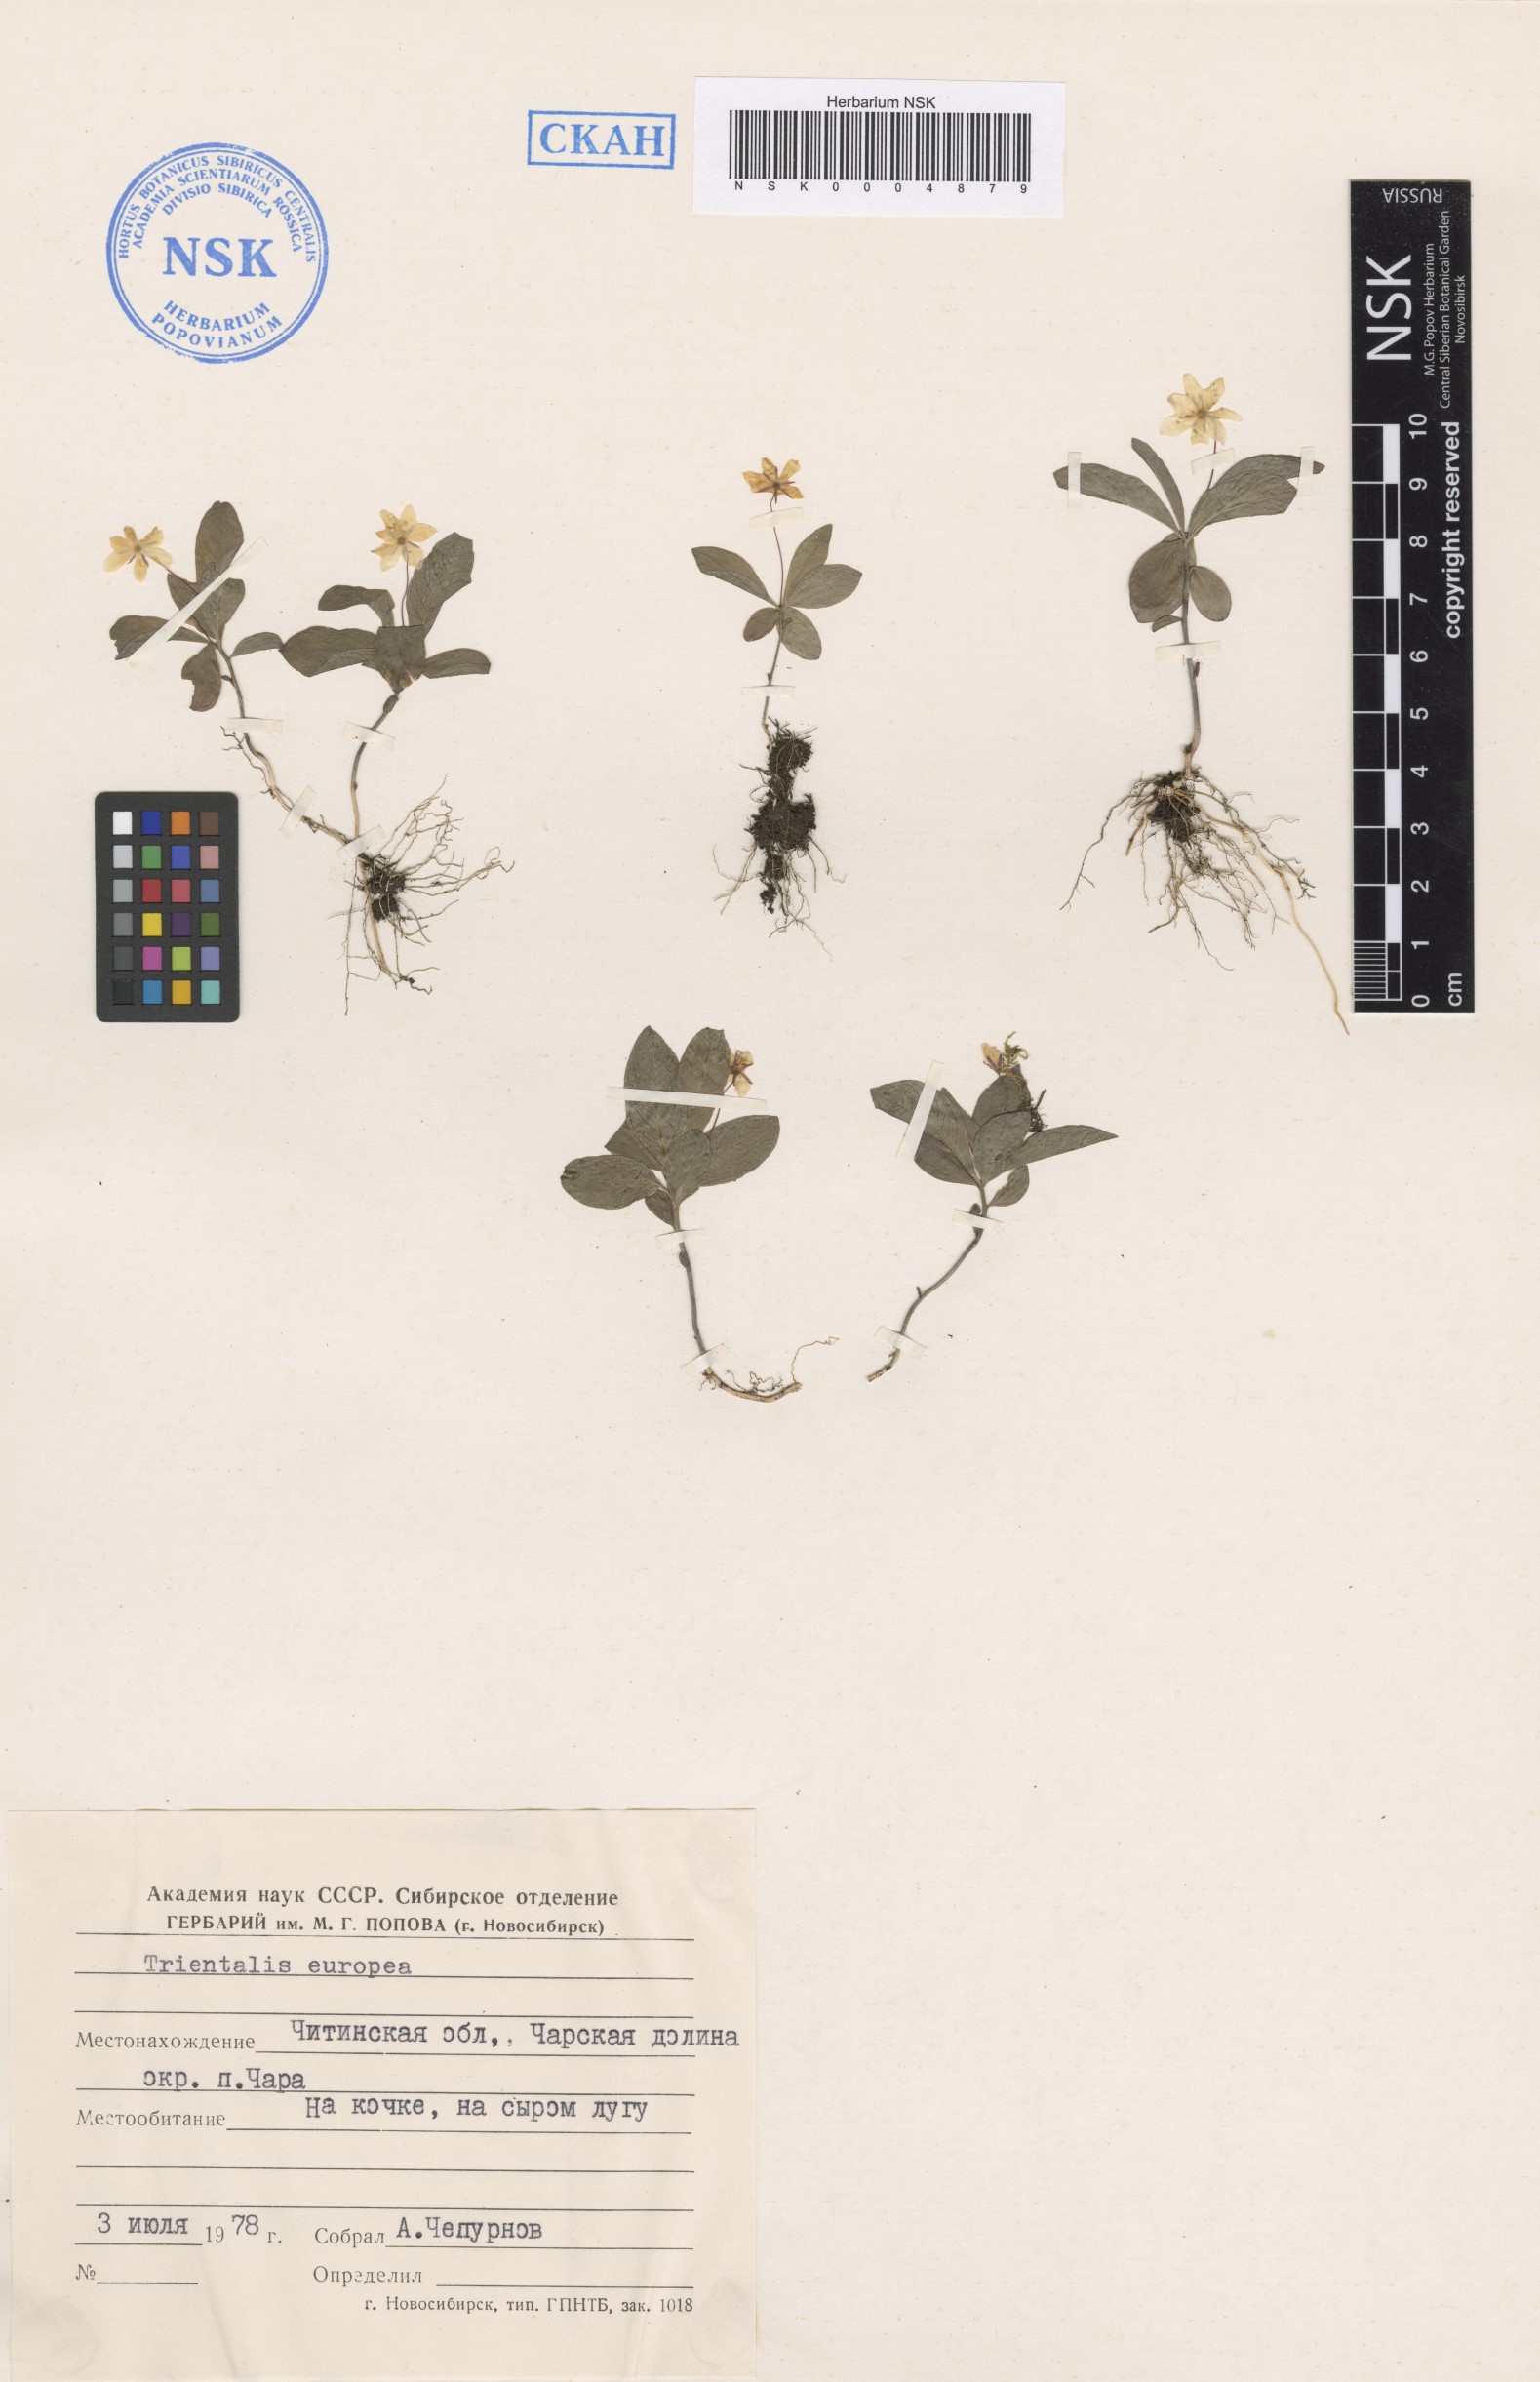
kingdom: Plantae
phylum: Tracheophyta
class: Magnoliopsida
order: Ericales
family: Primulaceae
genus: Lysimachia
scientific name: Lysimachia europaea
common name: Arctic starflower
